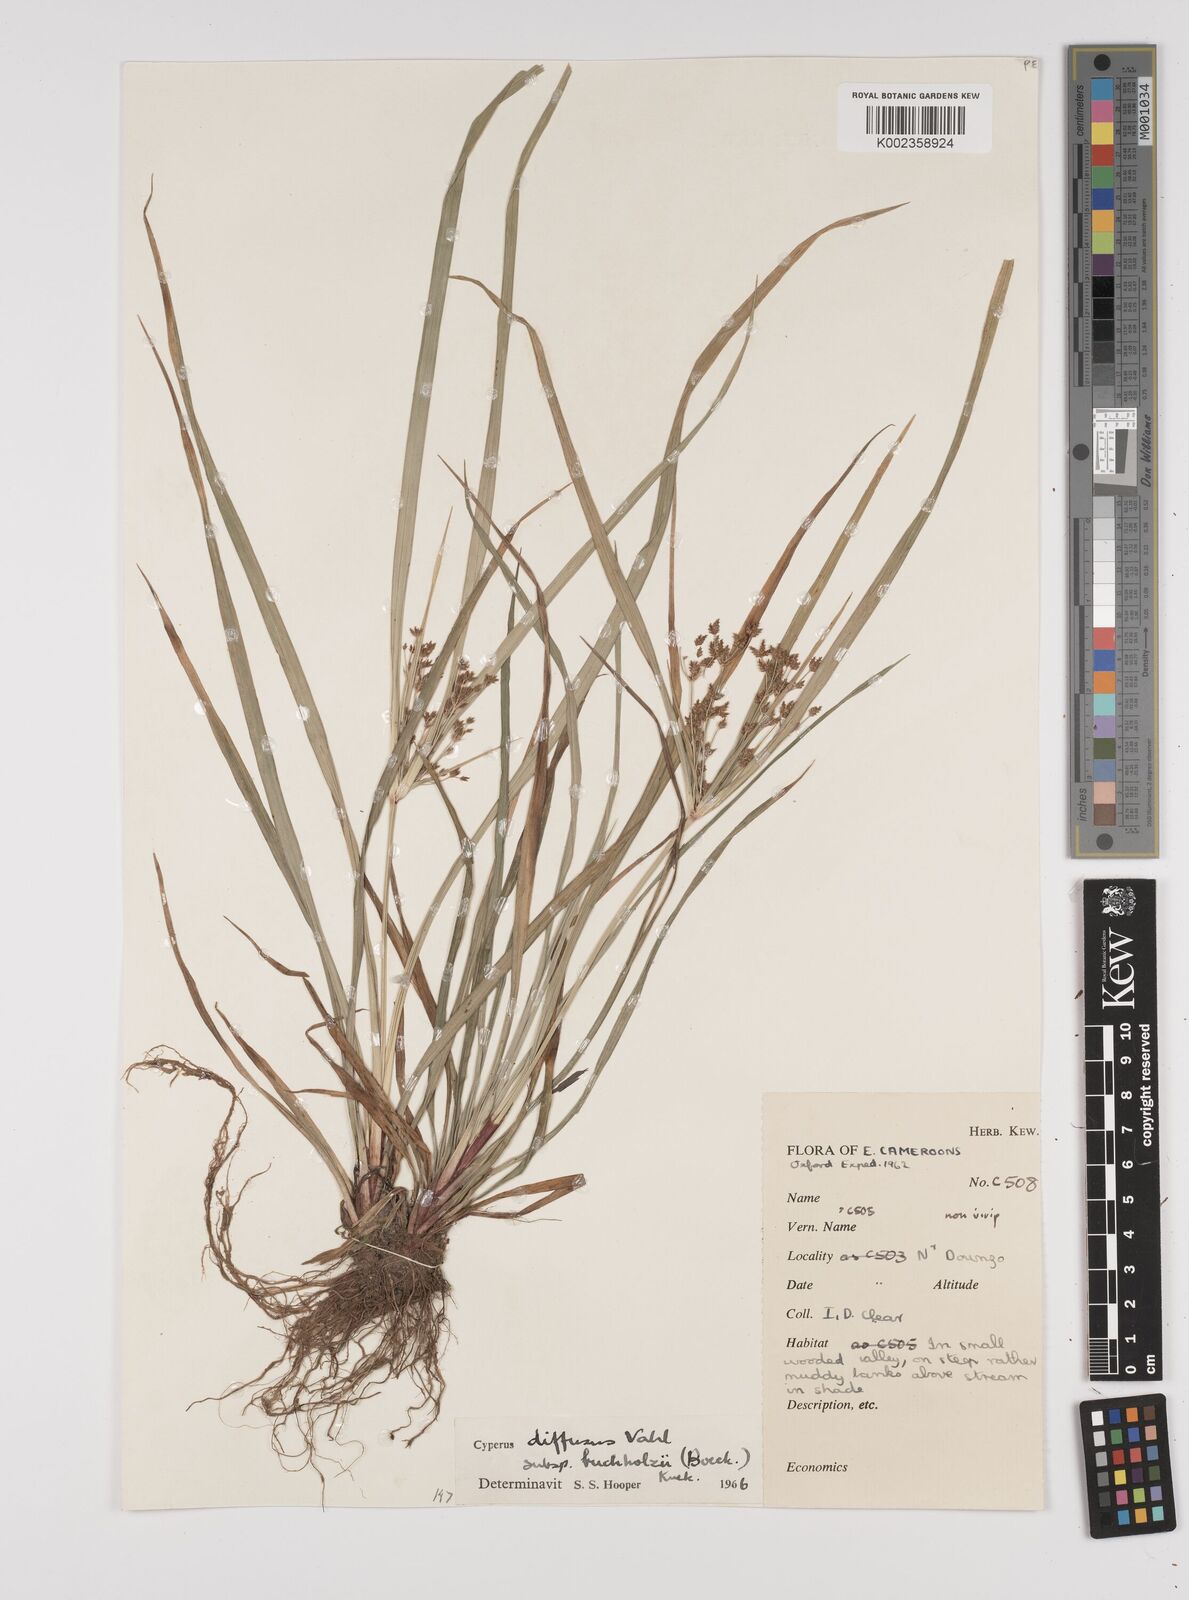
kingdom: Plantae
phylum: Tracheophyta
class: Liliopsida
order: Poales
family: Cyperaceae
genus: Cyperus
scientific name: Cyperus buchholzii
